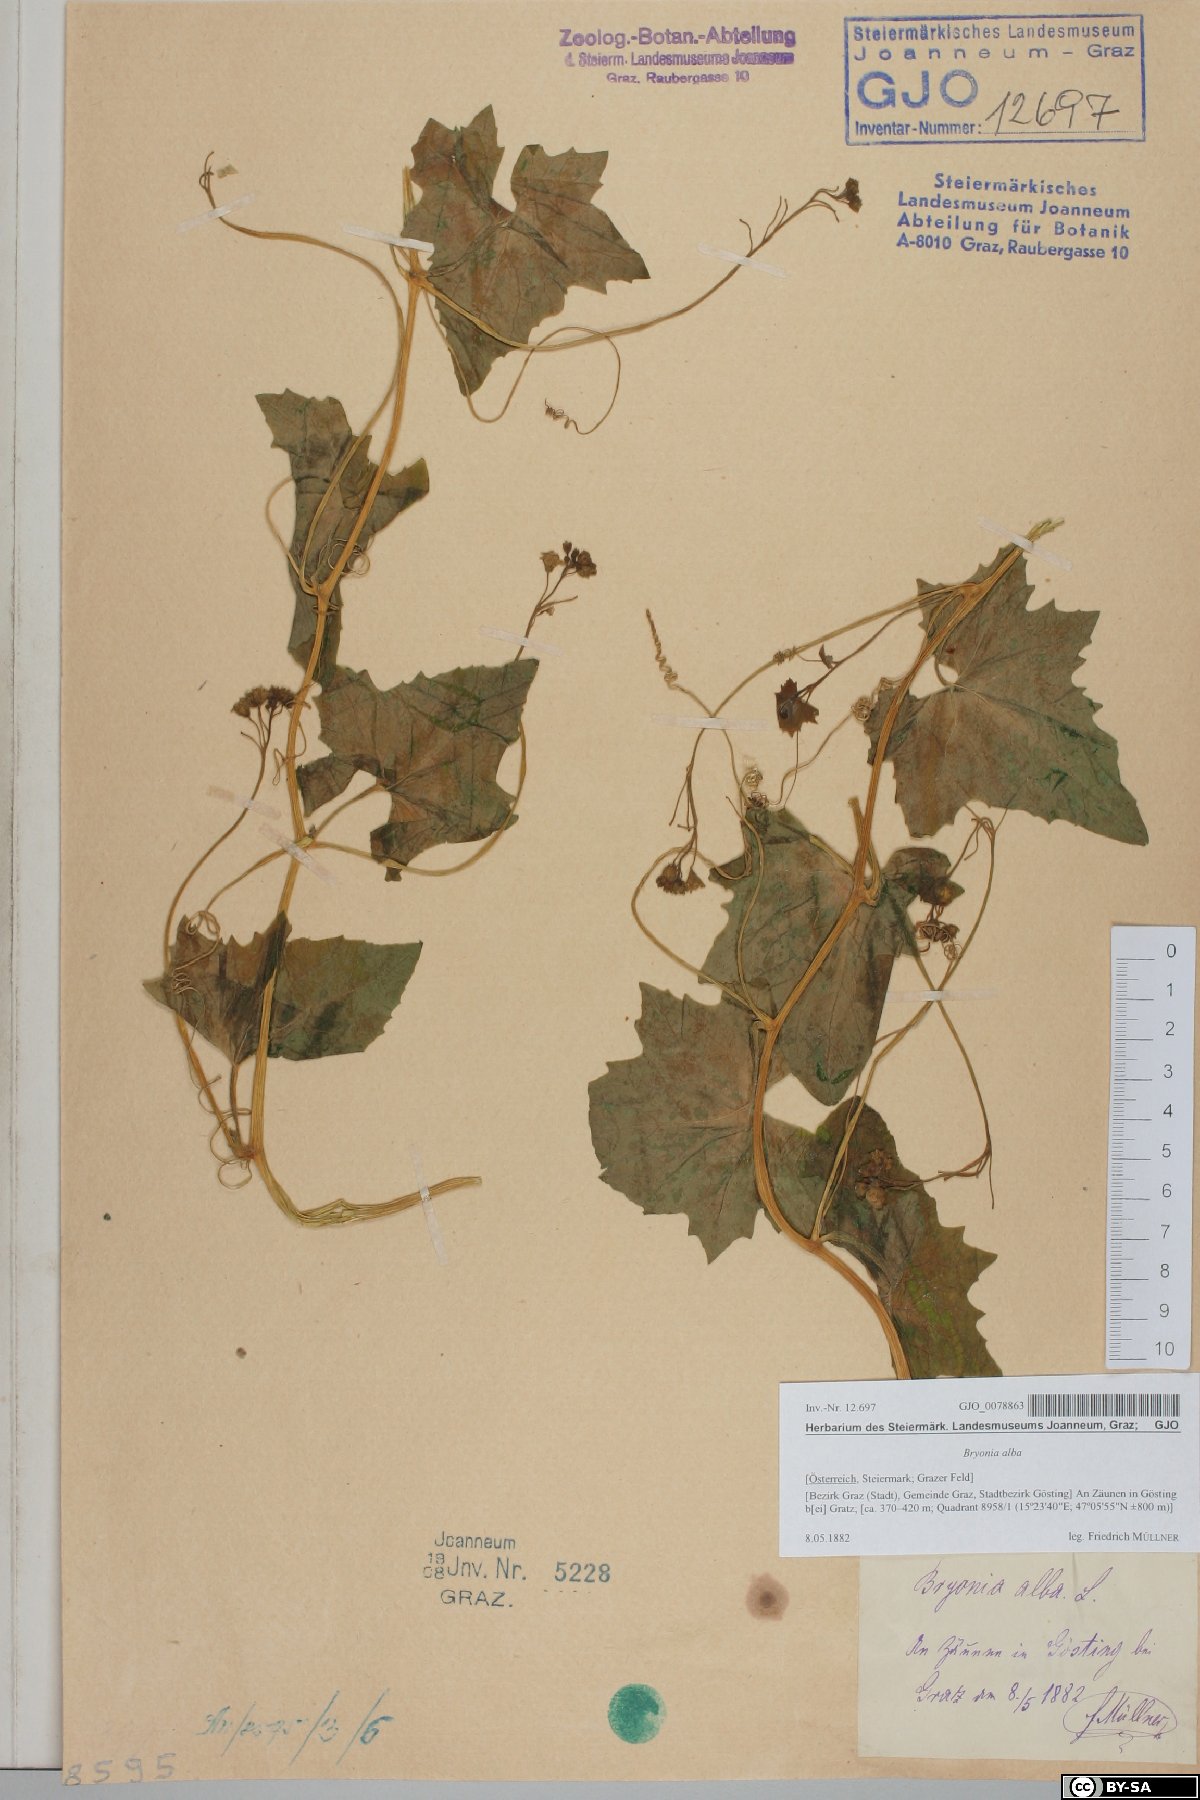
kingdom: Plantae
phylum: Tracheophyta
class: Magnoliopsida
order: Cucurbitales
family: Cucurbitaceae
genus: Bryonia
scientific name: Bryonia alba
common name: White bryony
